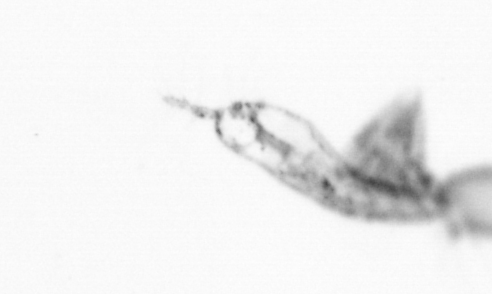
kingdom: Animalia
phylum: Arthropoda
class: Copepoda
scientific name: Copepoda
